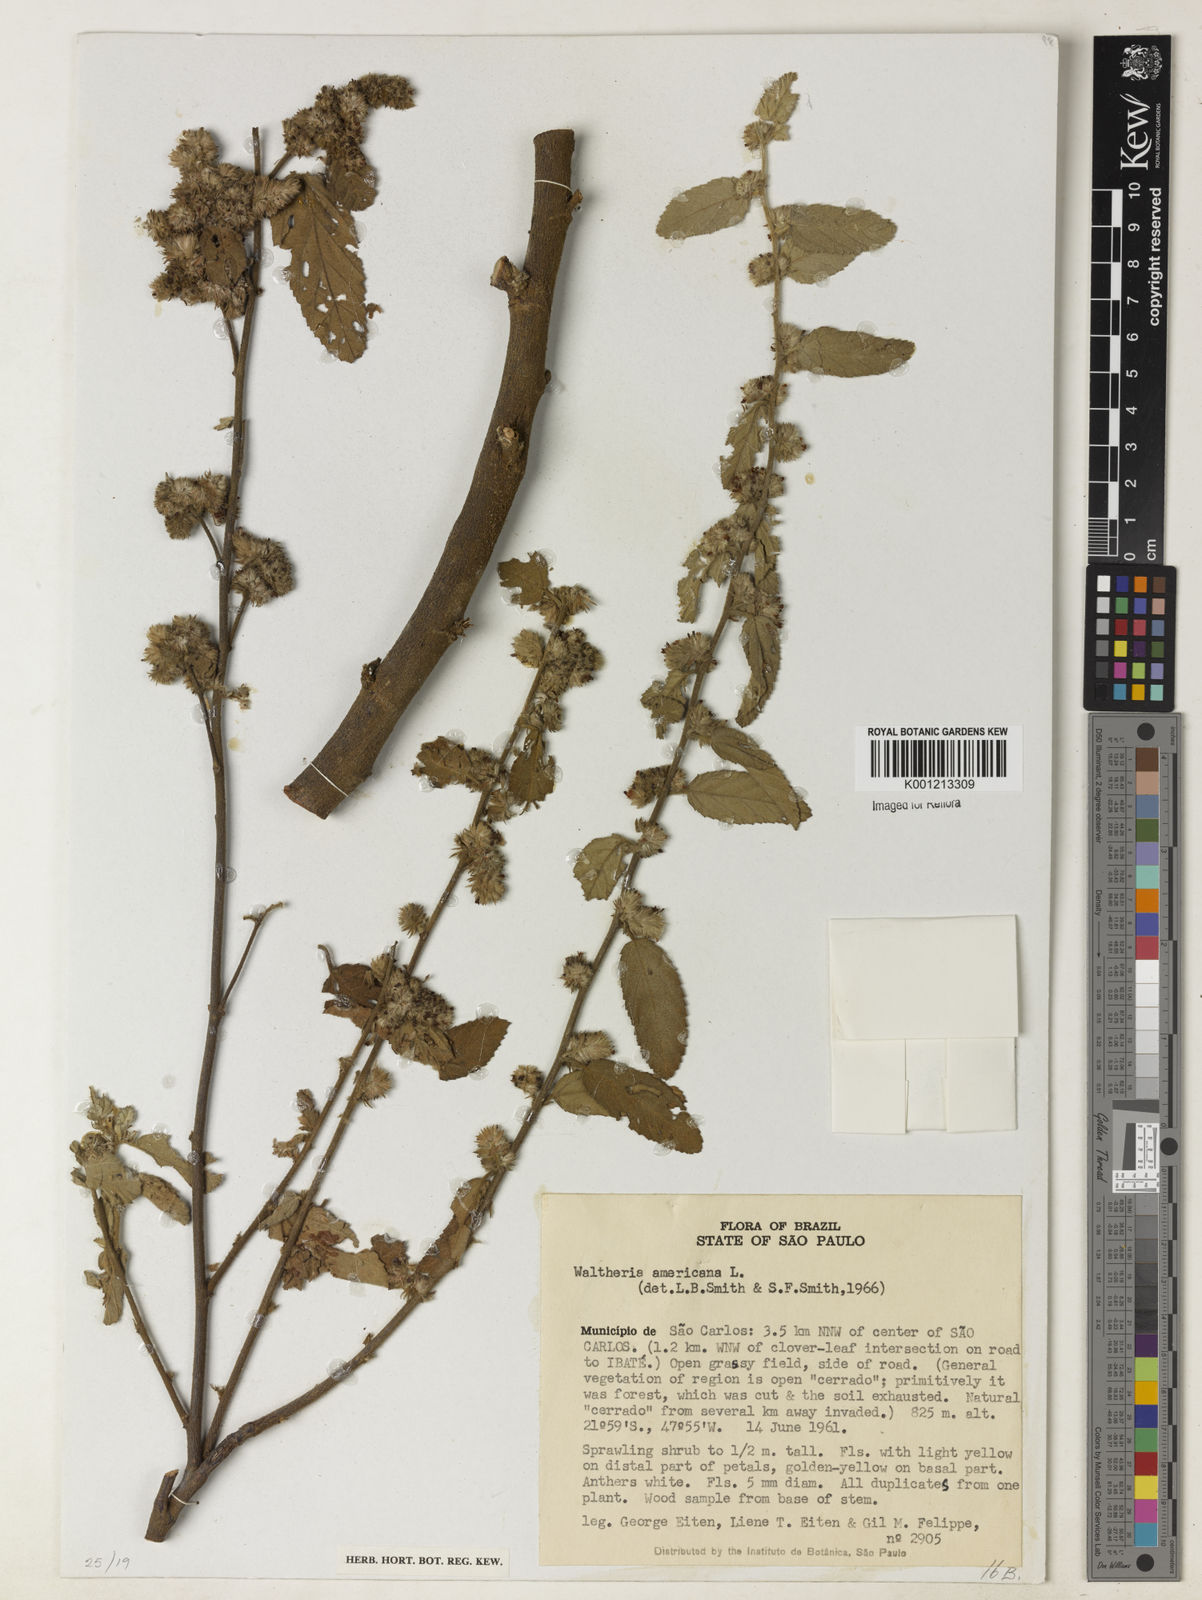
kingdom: Plantae
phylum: Tracheophyta
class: Magnoliopsida
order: Malvales
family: Malvaceae
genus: Waltheria
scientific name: Waltheria indica
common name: Leather-coat
